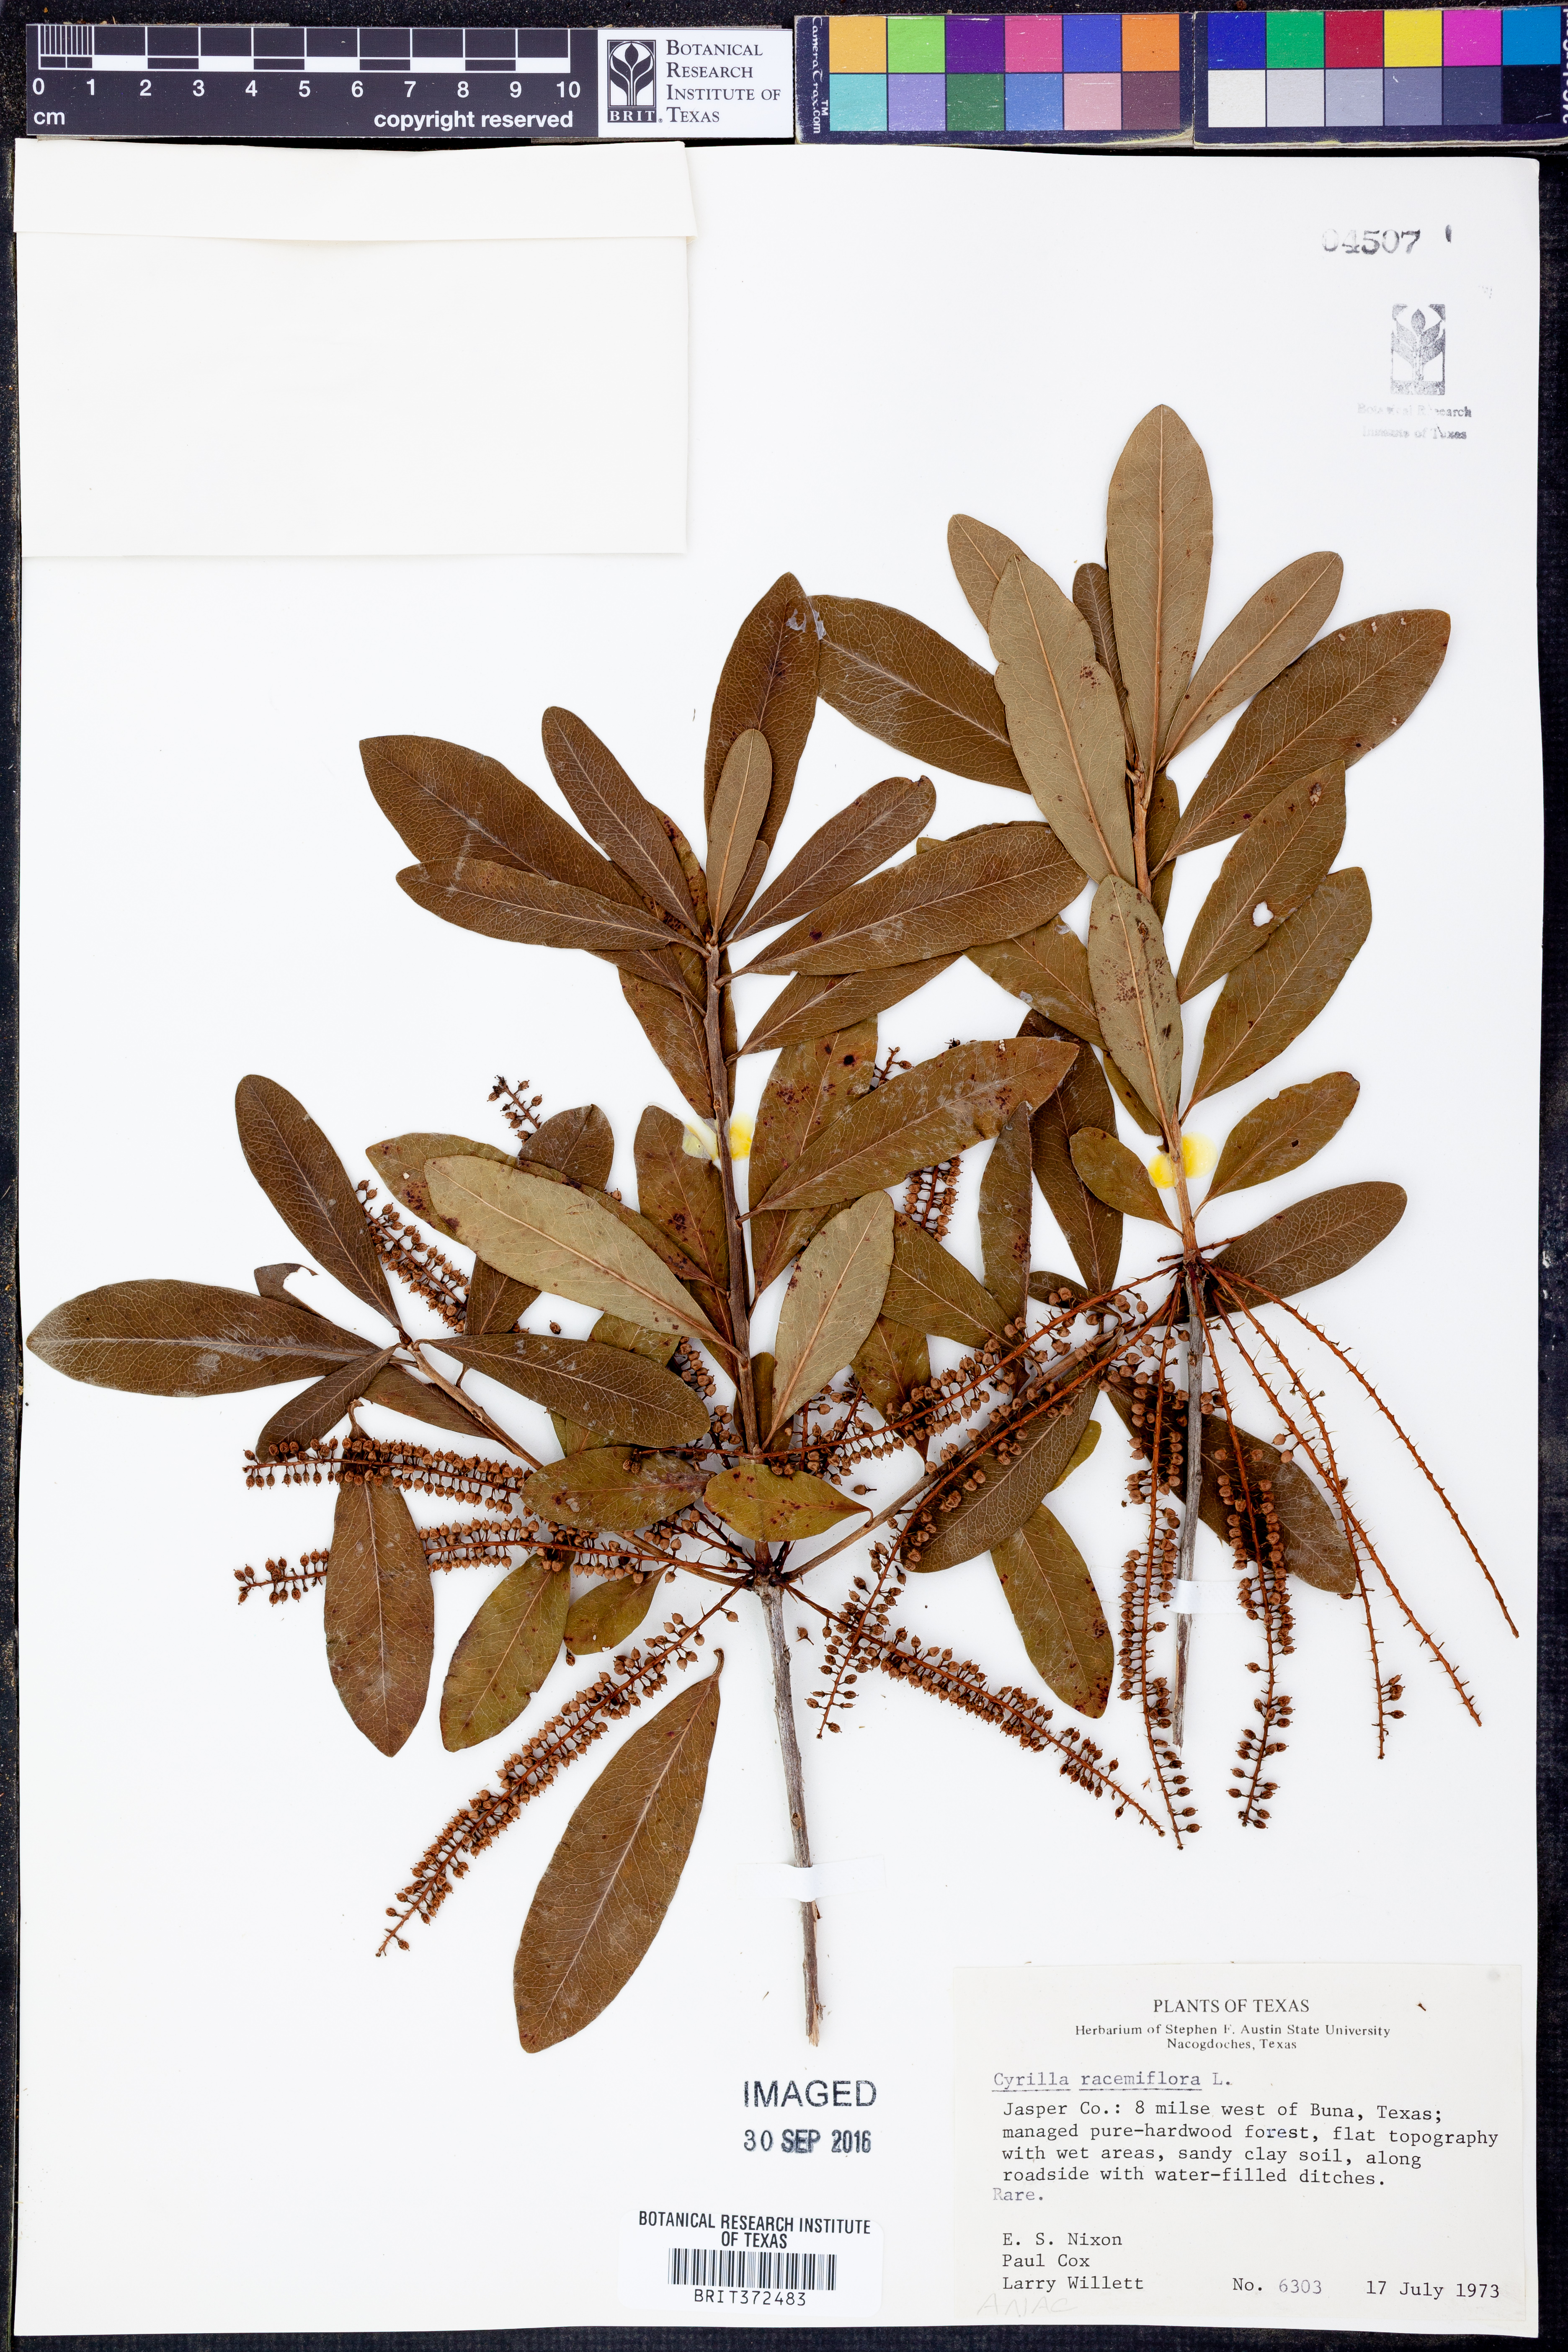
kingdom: Plantae
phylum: Tracheophyta
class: Magnoliopsida
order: Ericales
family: Cyrillaceae
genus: Cyrilla
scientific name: Cyrilla racemiflora
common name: Black titi
